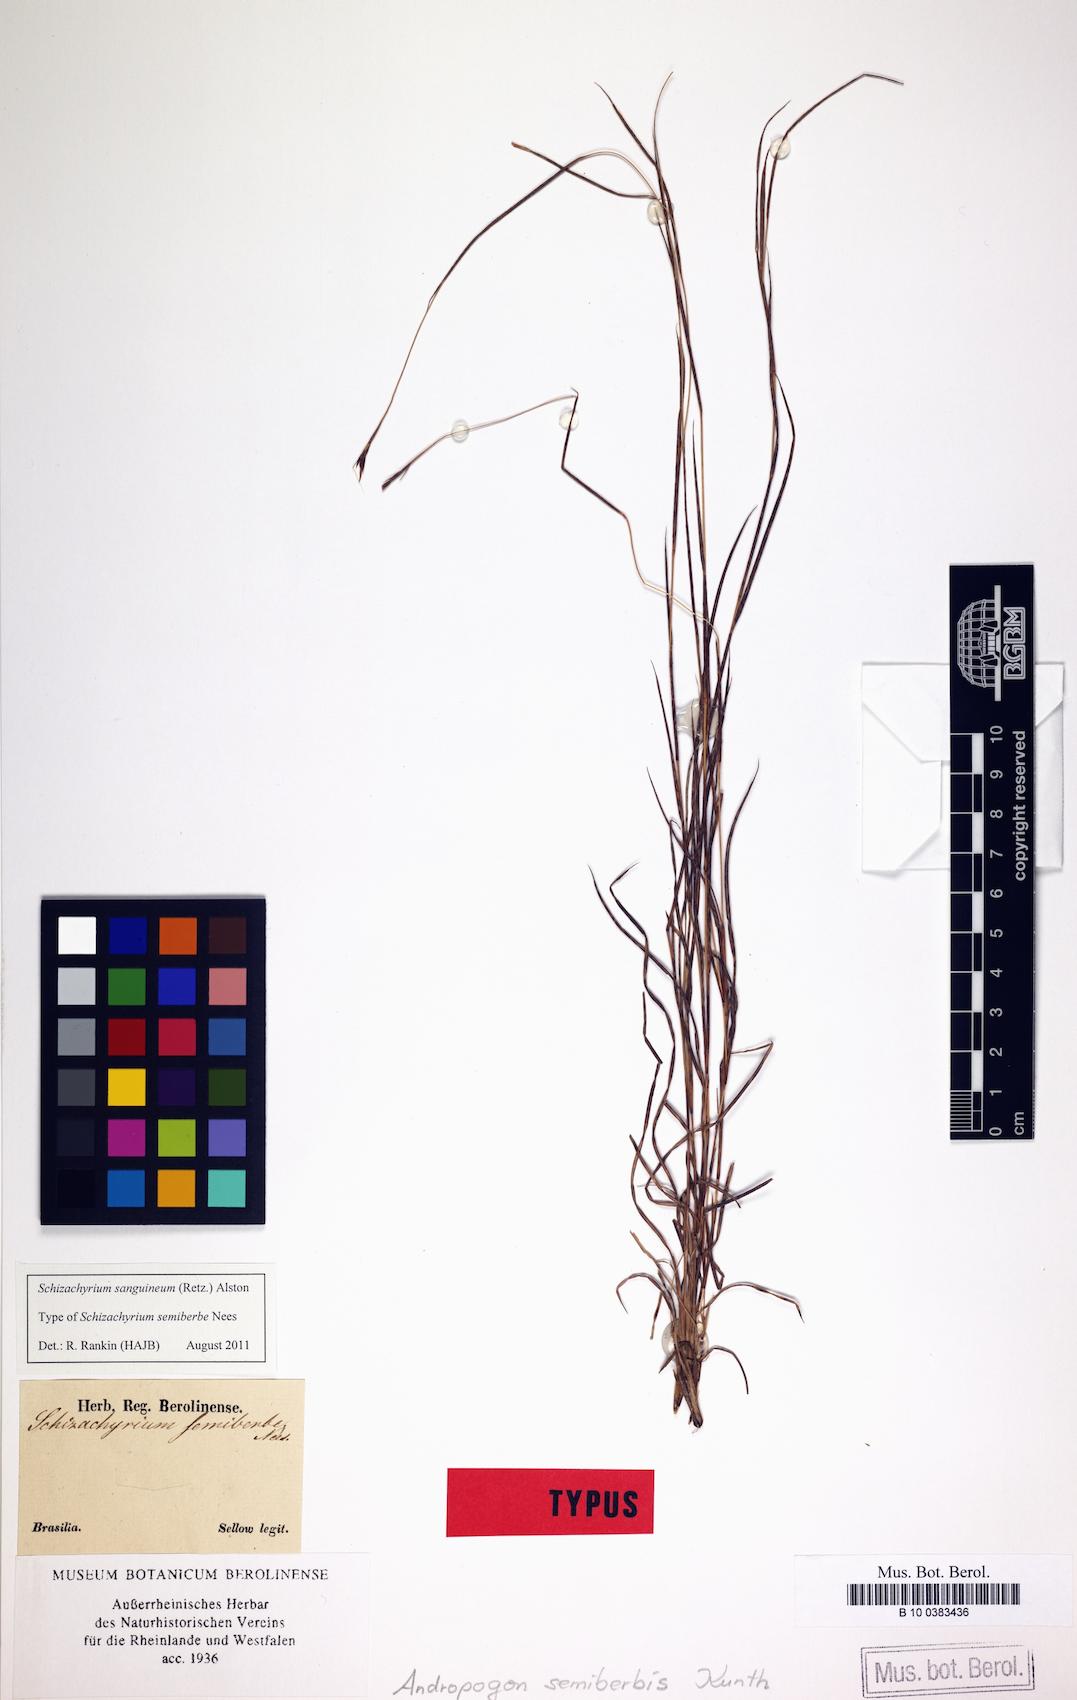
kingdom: Plantae
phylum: Tracheophyta
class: Liliopsida
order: Poales
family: Poaceae
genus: Schizachyrium
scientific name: Schizachyrium sanguineum
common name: Crimson bluestem
